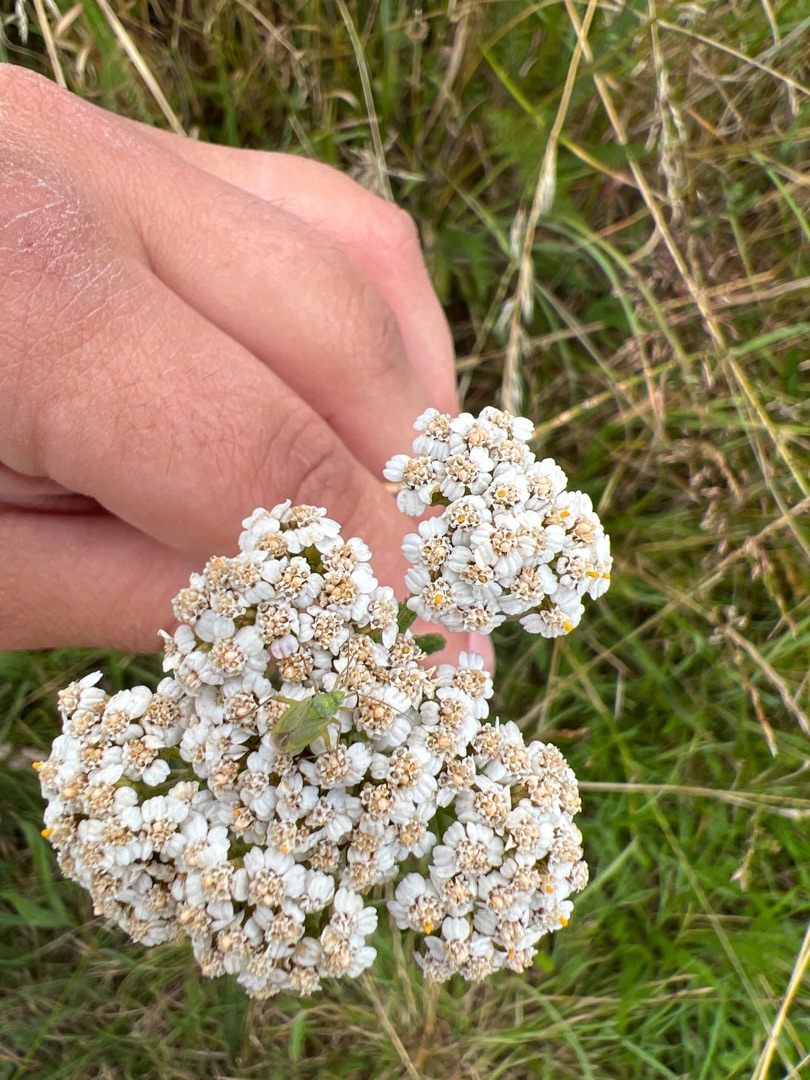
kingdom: Plantae
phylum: Tracheophyta
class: Magnoliopsida
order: Asterales
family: Asteraceae
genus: Achillea
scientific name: Achillea millefolium
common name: Almindelig røllike
